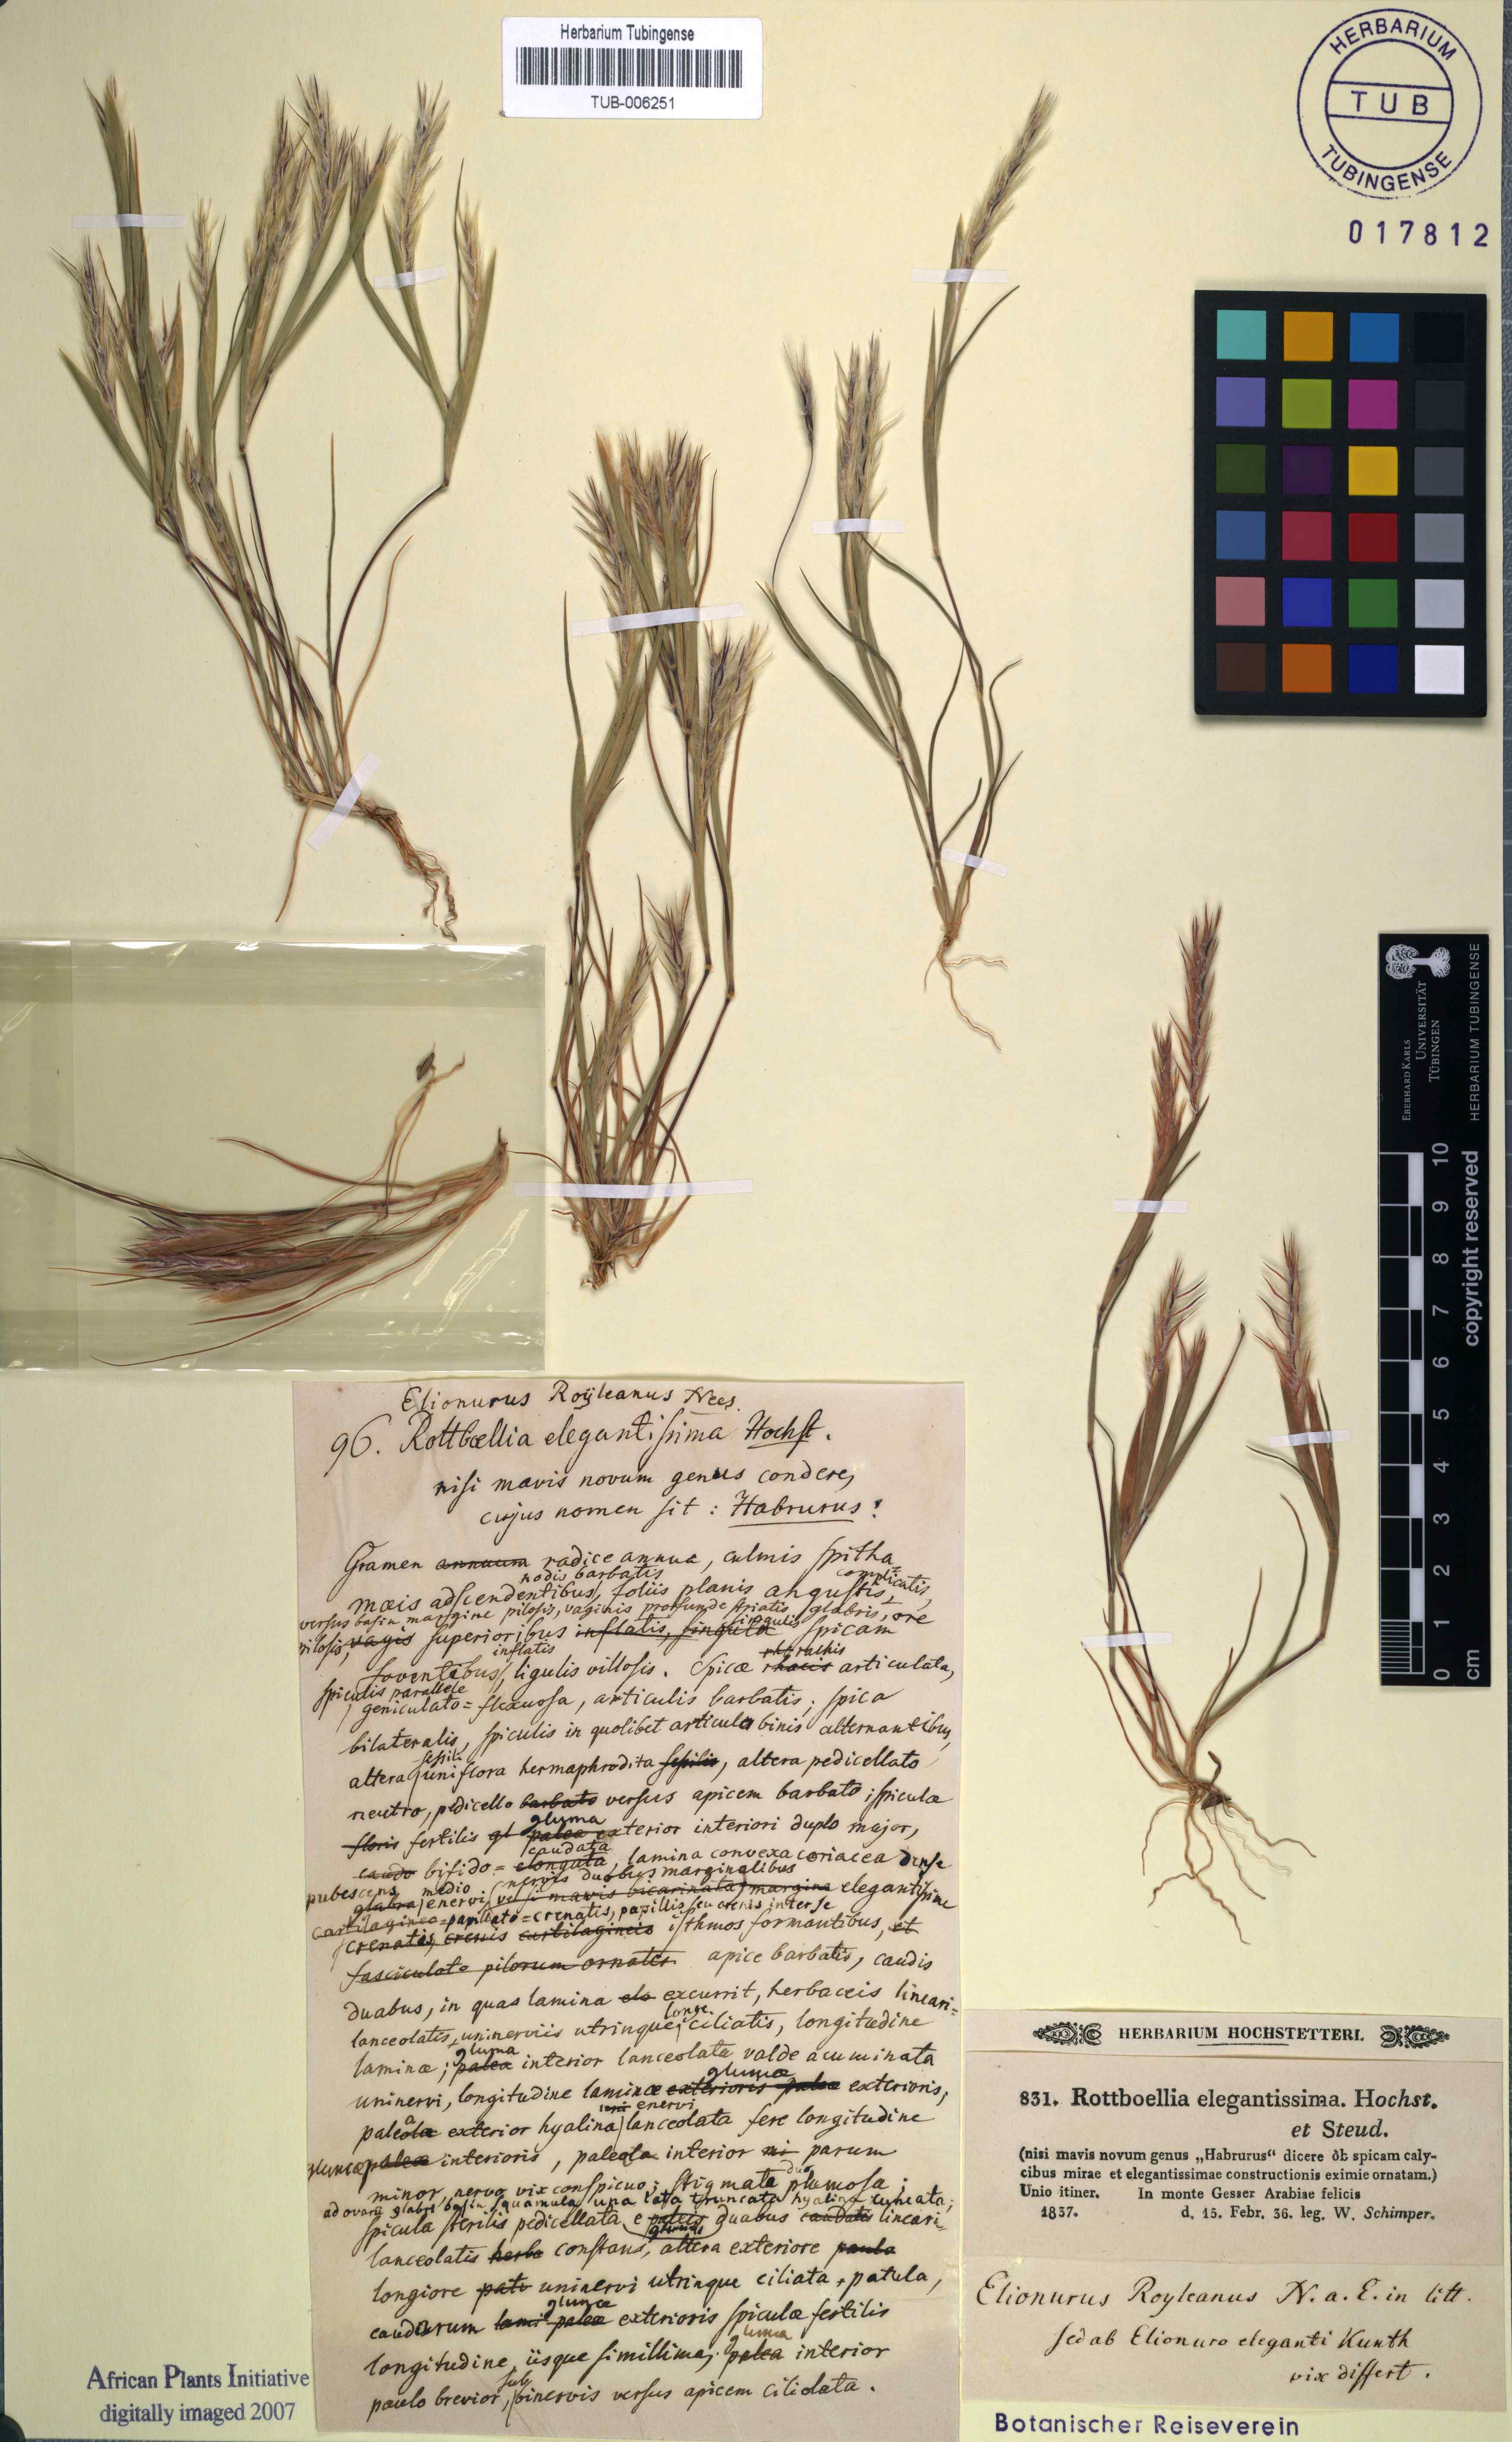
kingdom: Plantae
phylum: Tracheophyta
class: Liliopsida
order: Poales
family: Poaceae
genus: Elionurus
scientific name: Elionurus royleanus
